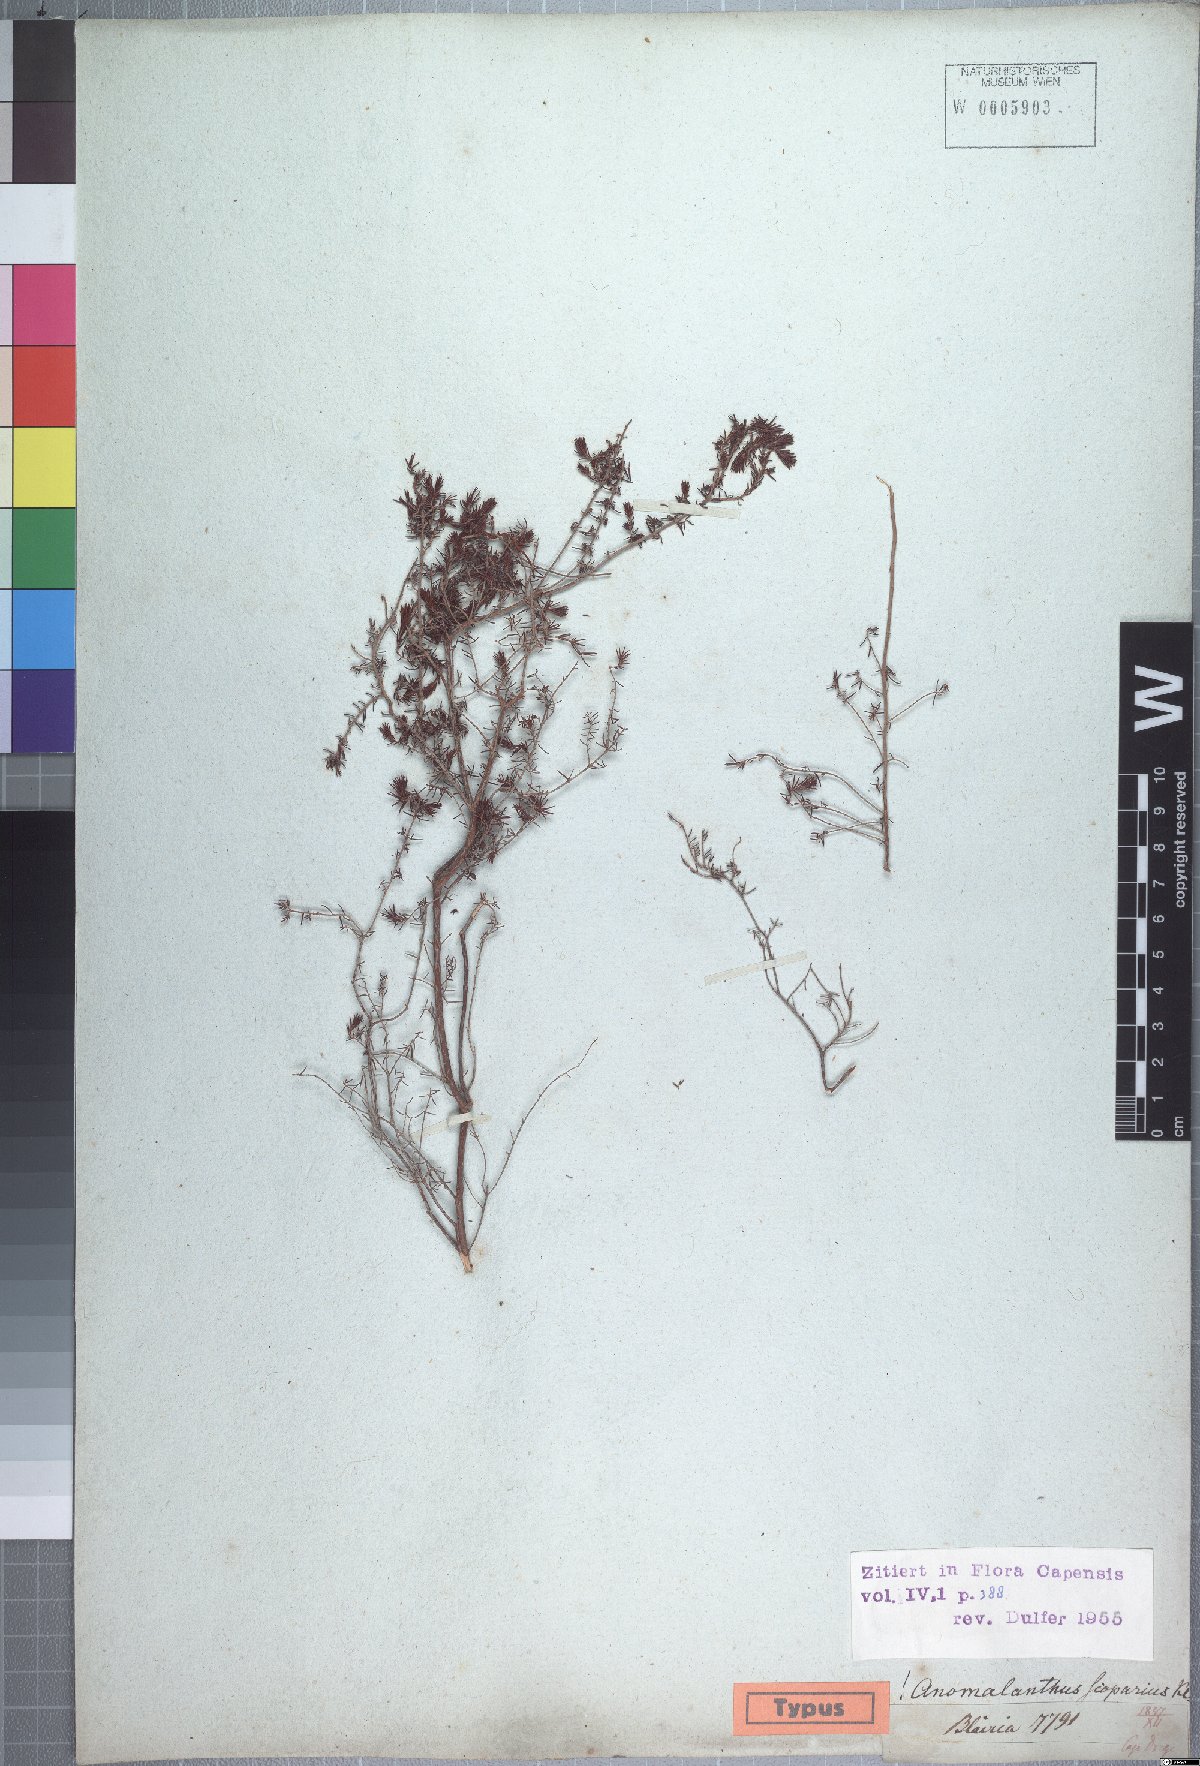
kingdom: Plantae
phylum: Tracheophyta
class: Magnoliopsida
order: Ericales
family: Ericaceae
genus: Erica
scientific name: Erica anguliger
